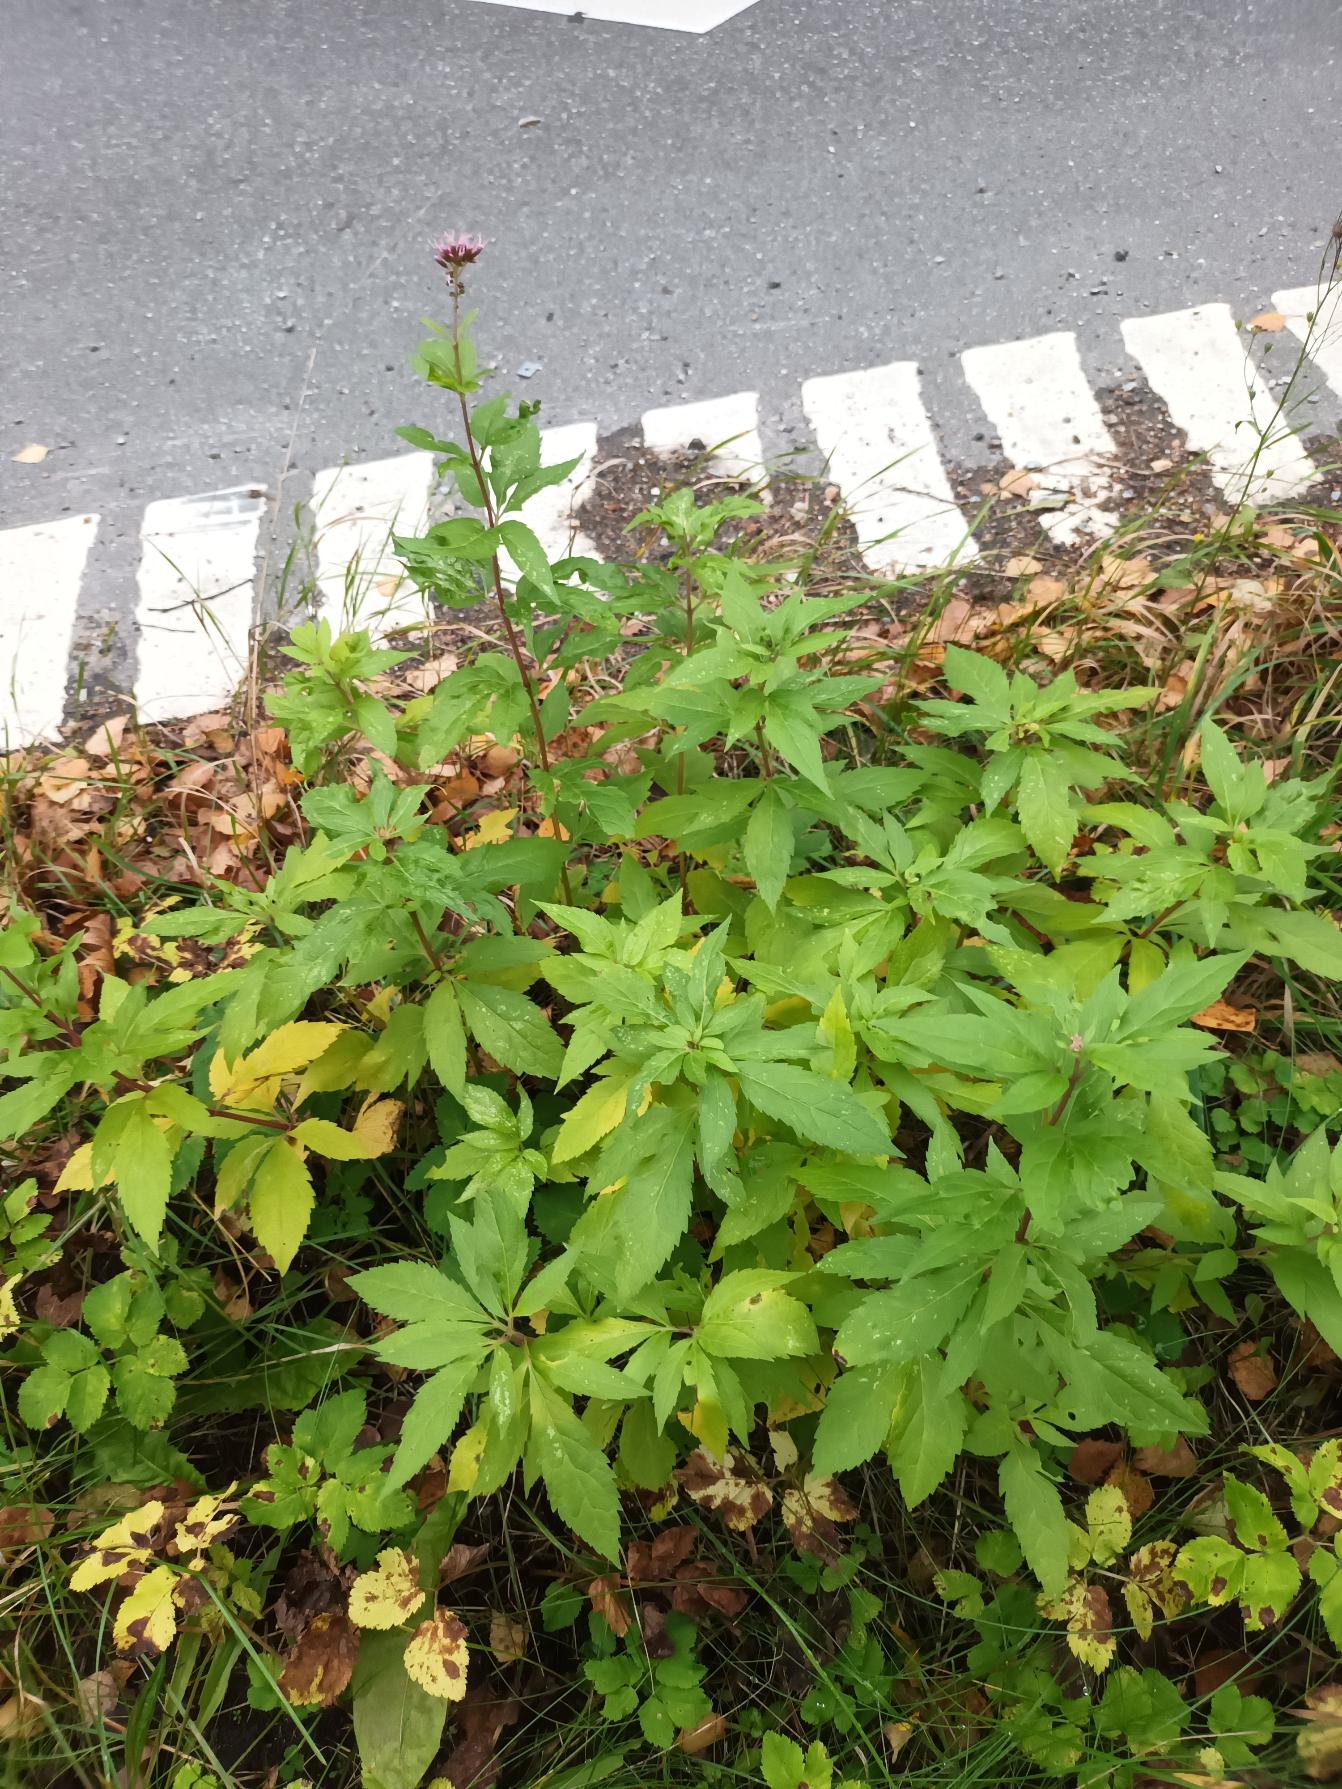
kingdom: Plantae
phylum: Tracheophyta
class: Magnoliopsida
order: Asterales
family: Asteraceae
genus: Eupatorium
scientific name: Eupatorium cannabinum
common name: Hjortetrøst
